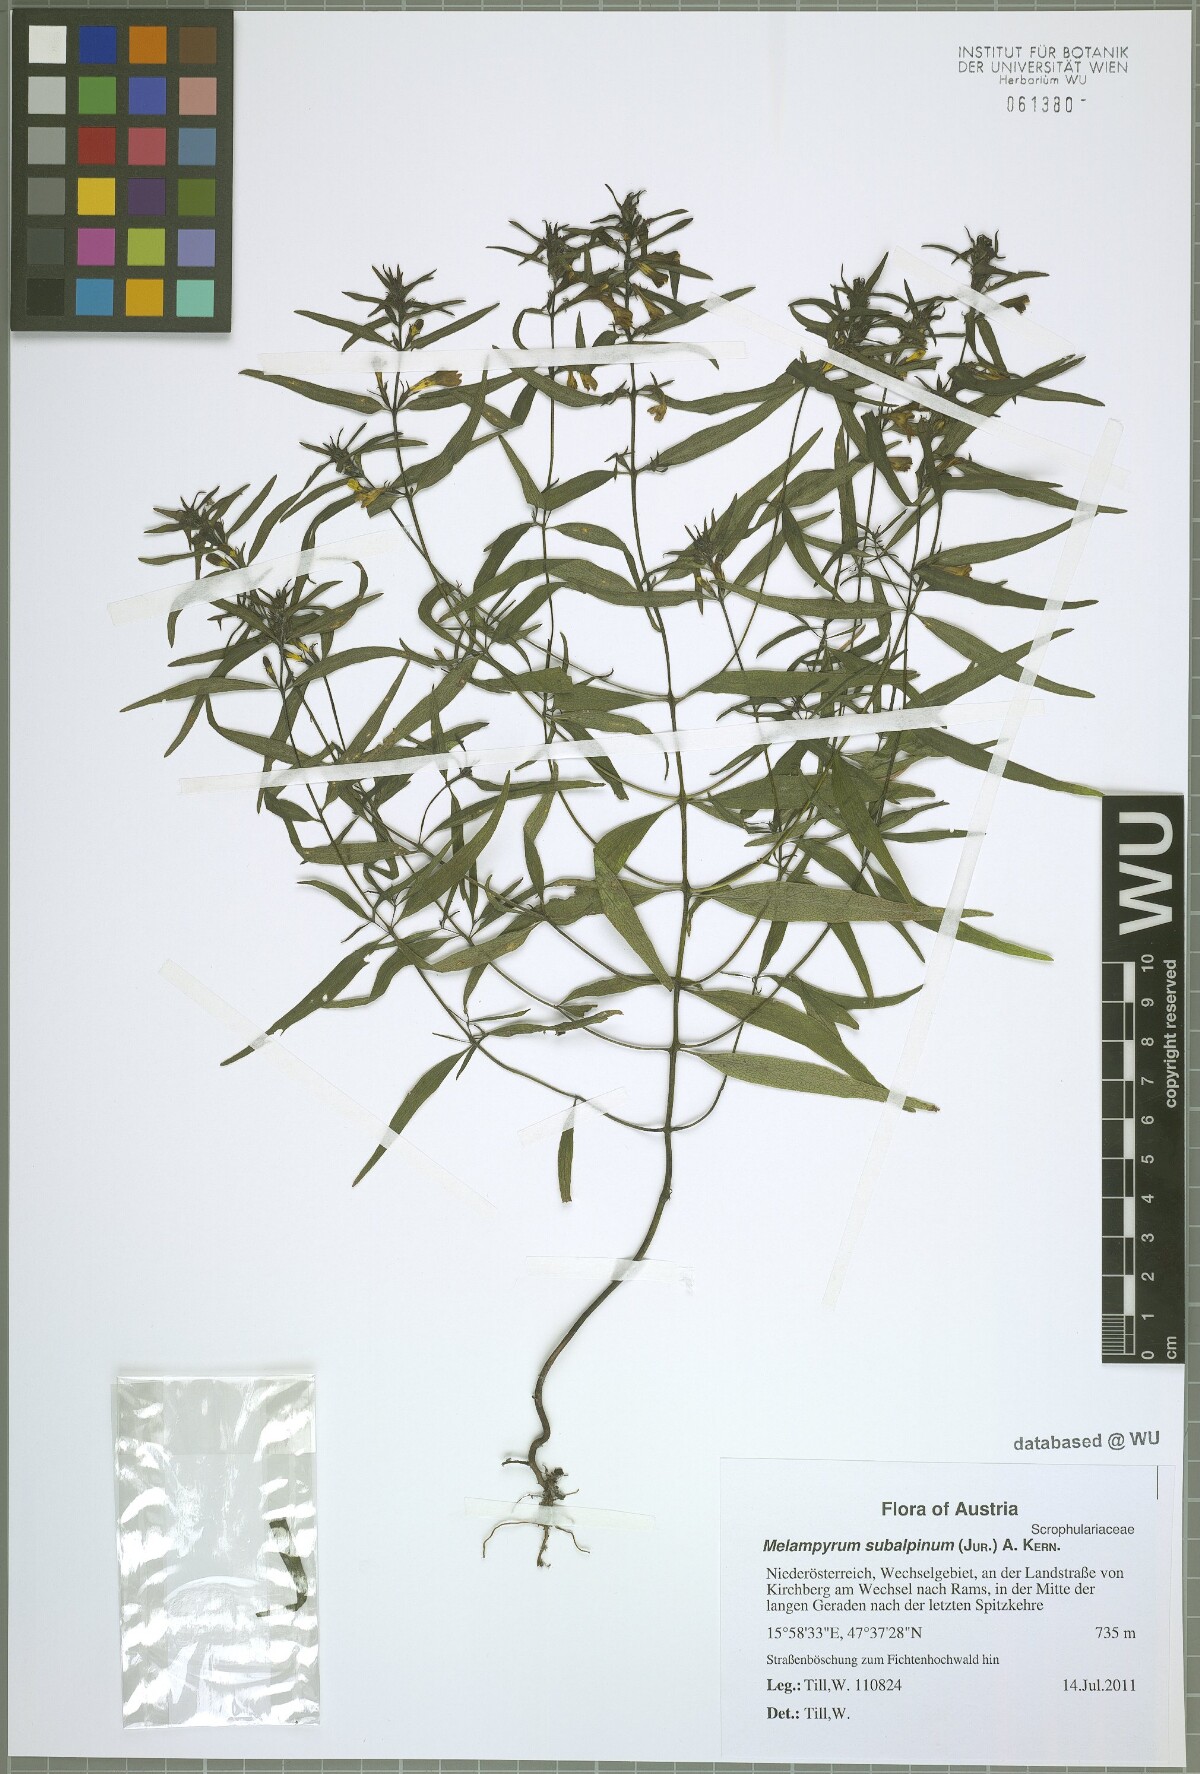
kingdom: Plantae
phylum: Tracheophyta
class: Magnoliopsida
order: Lamiales
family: Orobanchaceae
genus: Melampyrum
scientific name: Melampyrum subalpinum
